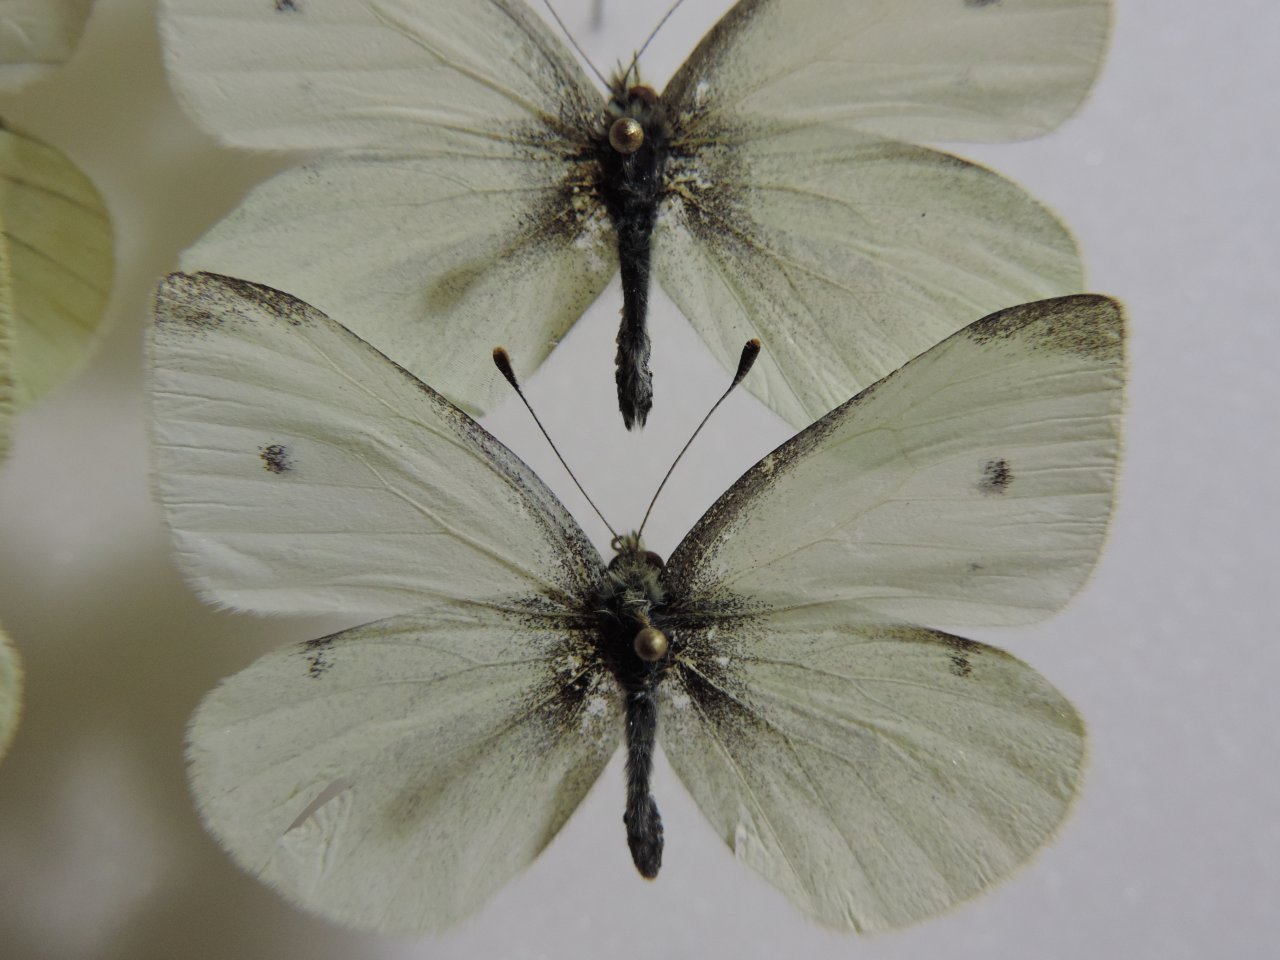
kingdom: Animalia
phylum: Arthropoda
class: Insecta
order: Lepidoptera
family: Pieridae
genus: Pieris
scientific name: Pieris rapae
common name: Cabbage White
